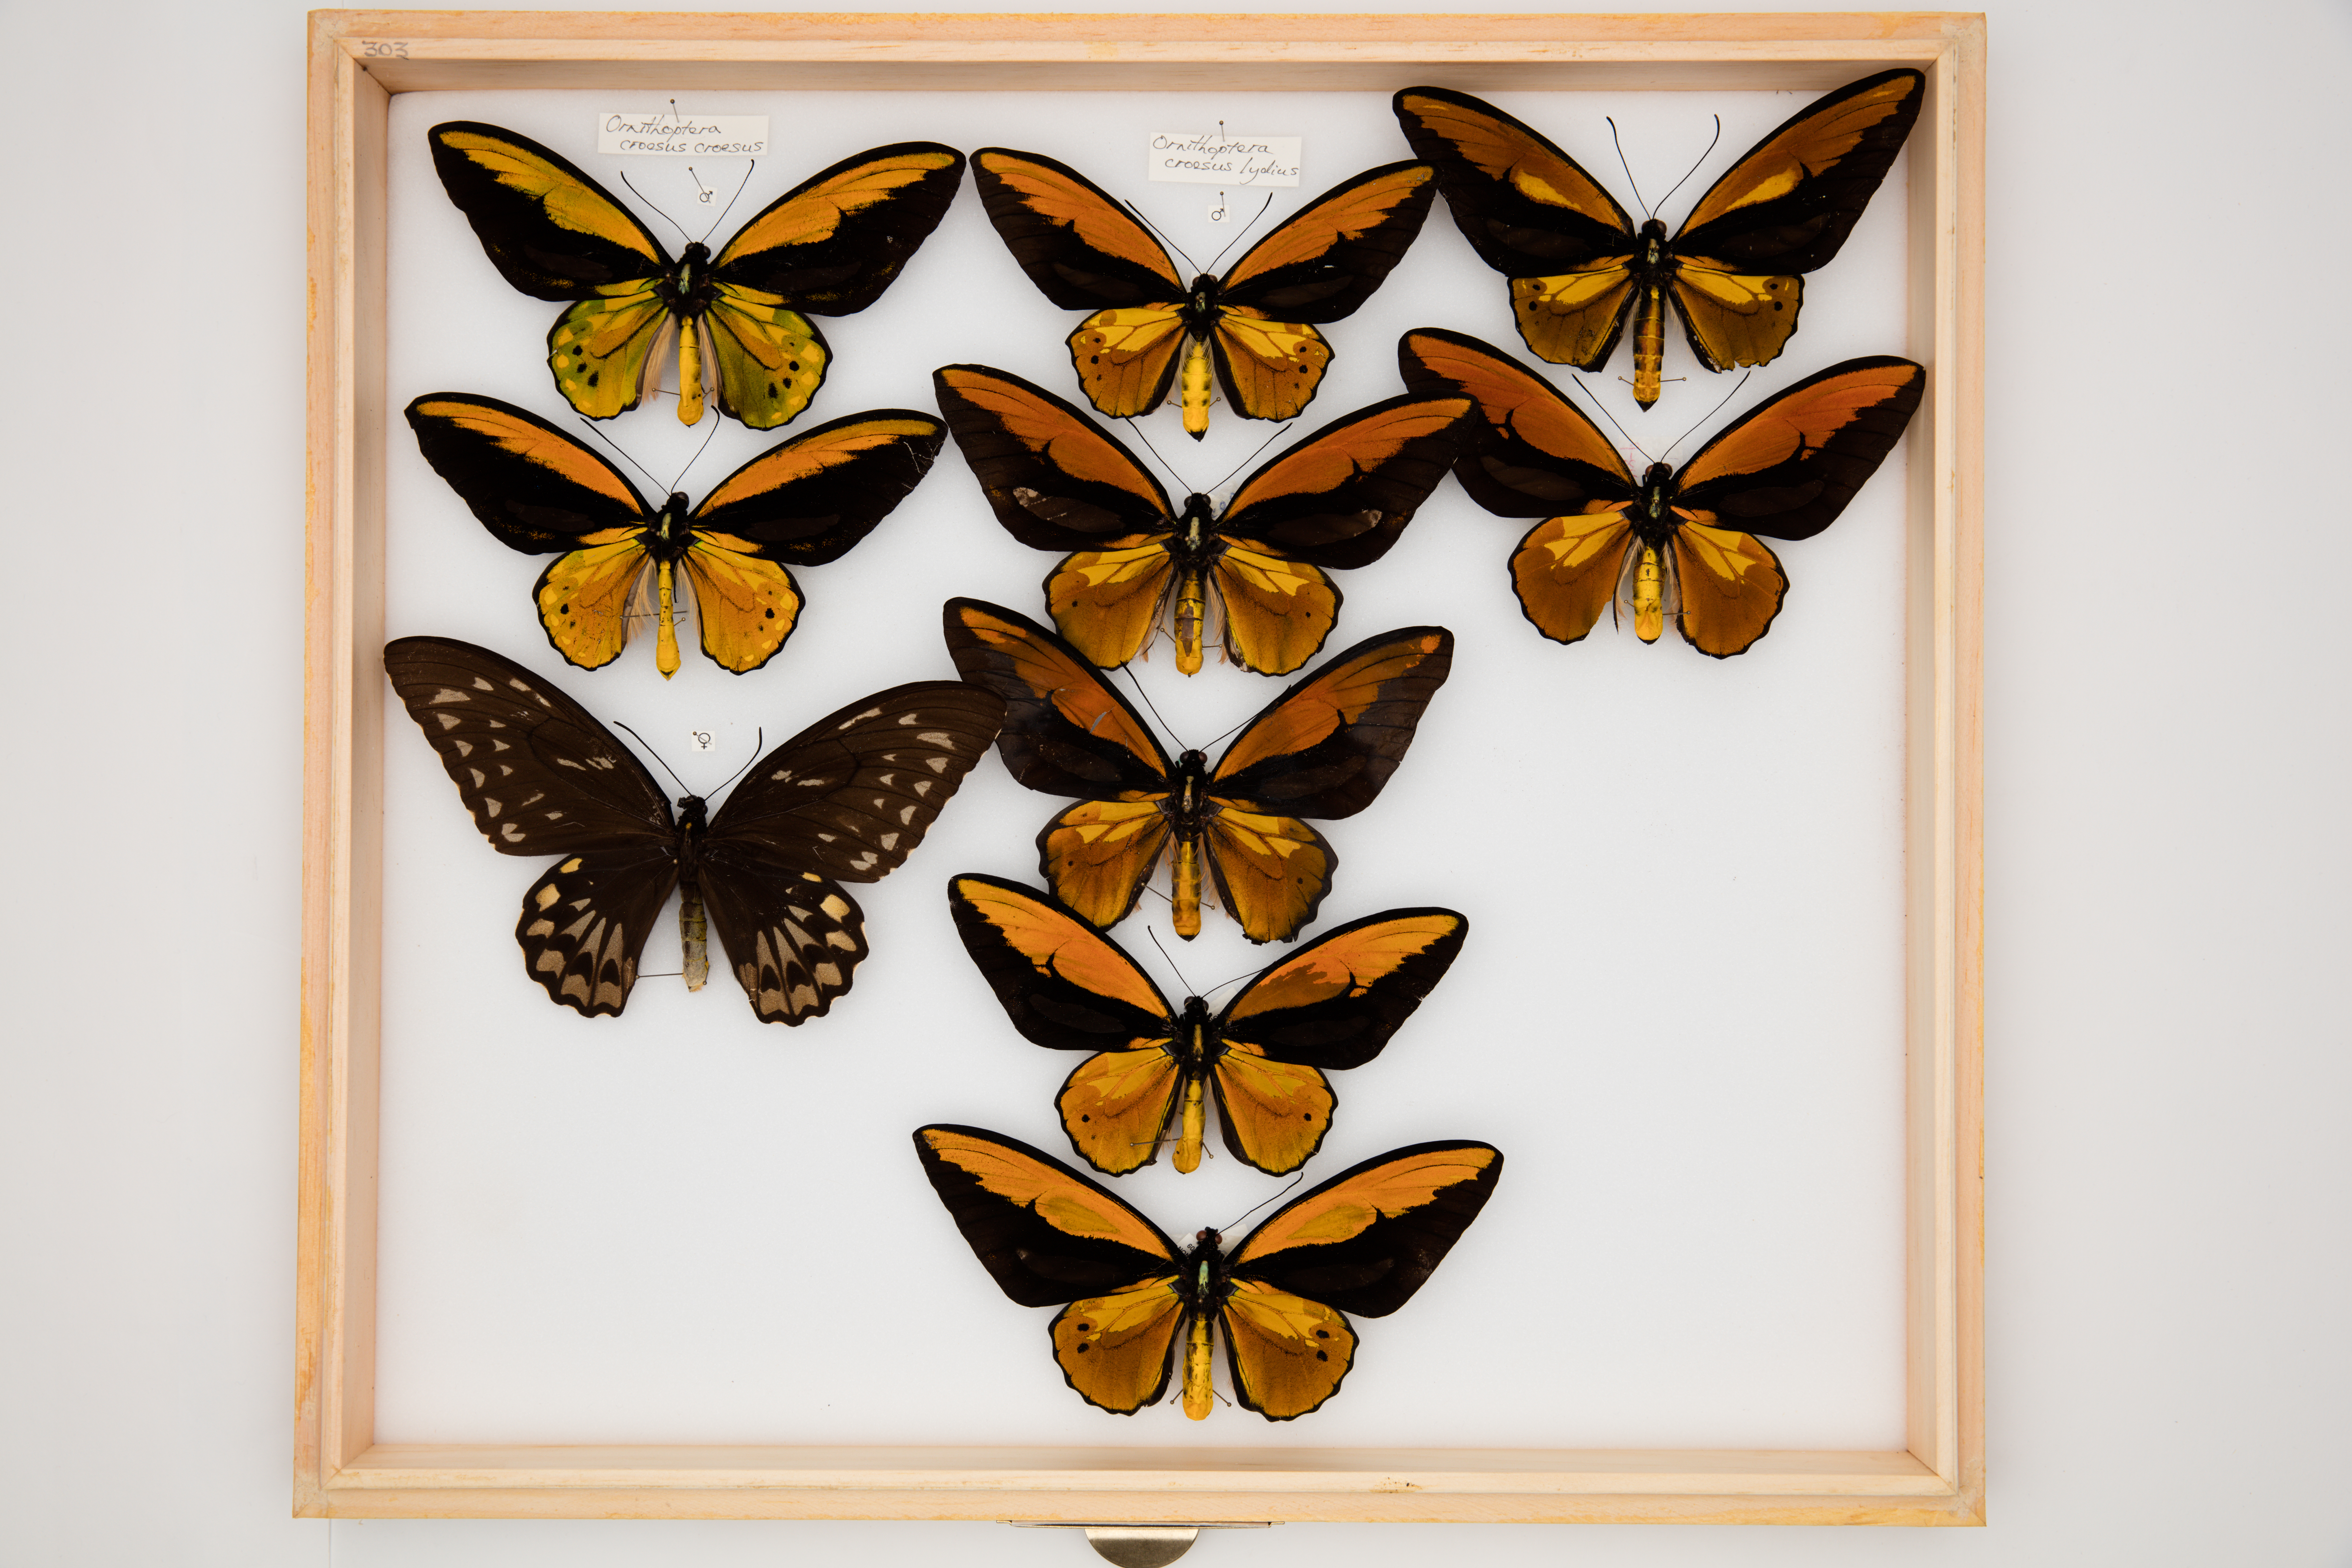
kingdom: Animalia
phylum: Arthropoda
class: Insecta
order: Lepidoptera
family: Papilionidae
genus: Ornithoptera
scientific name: Ornithoptera croesus
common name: Wallace's golden birdwing
